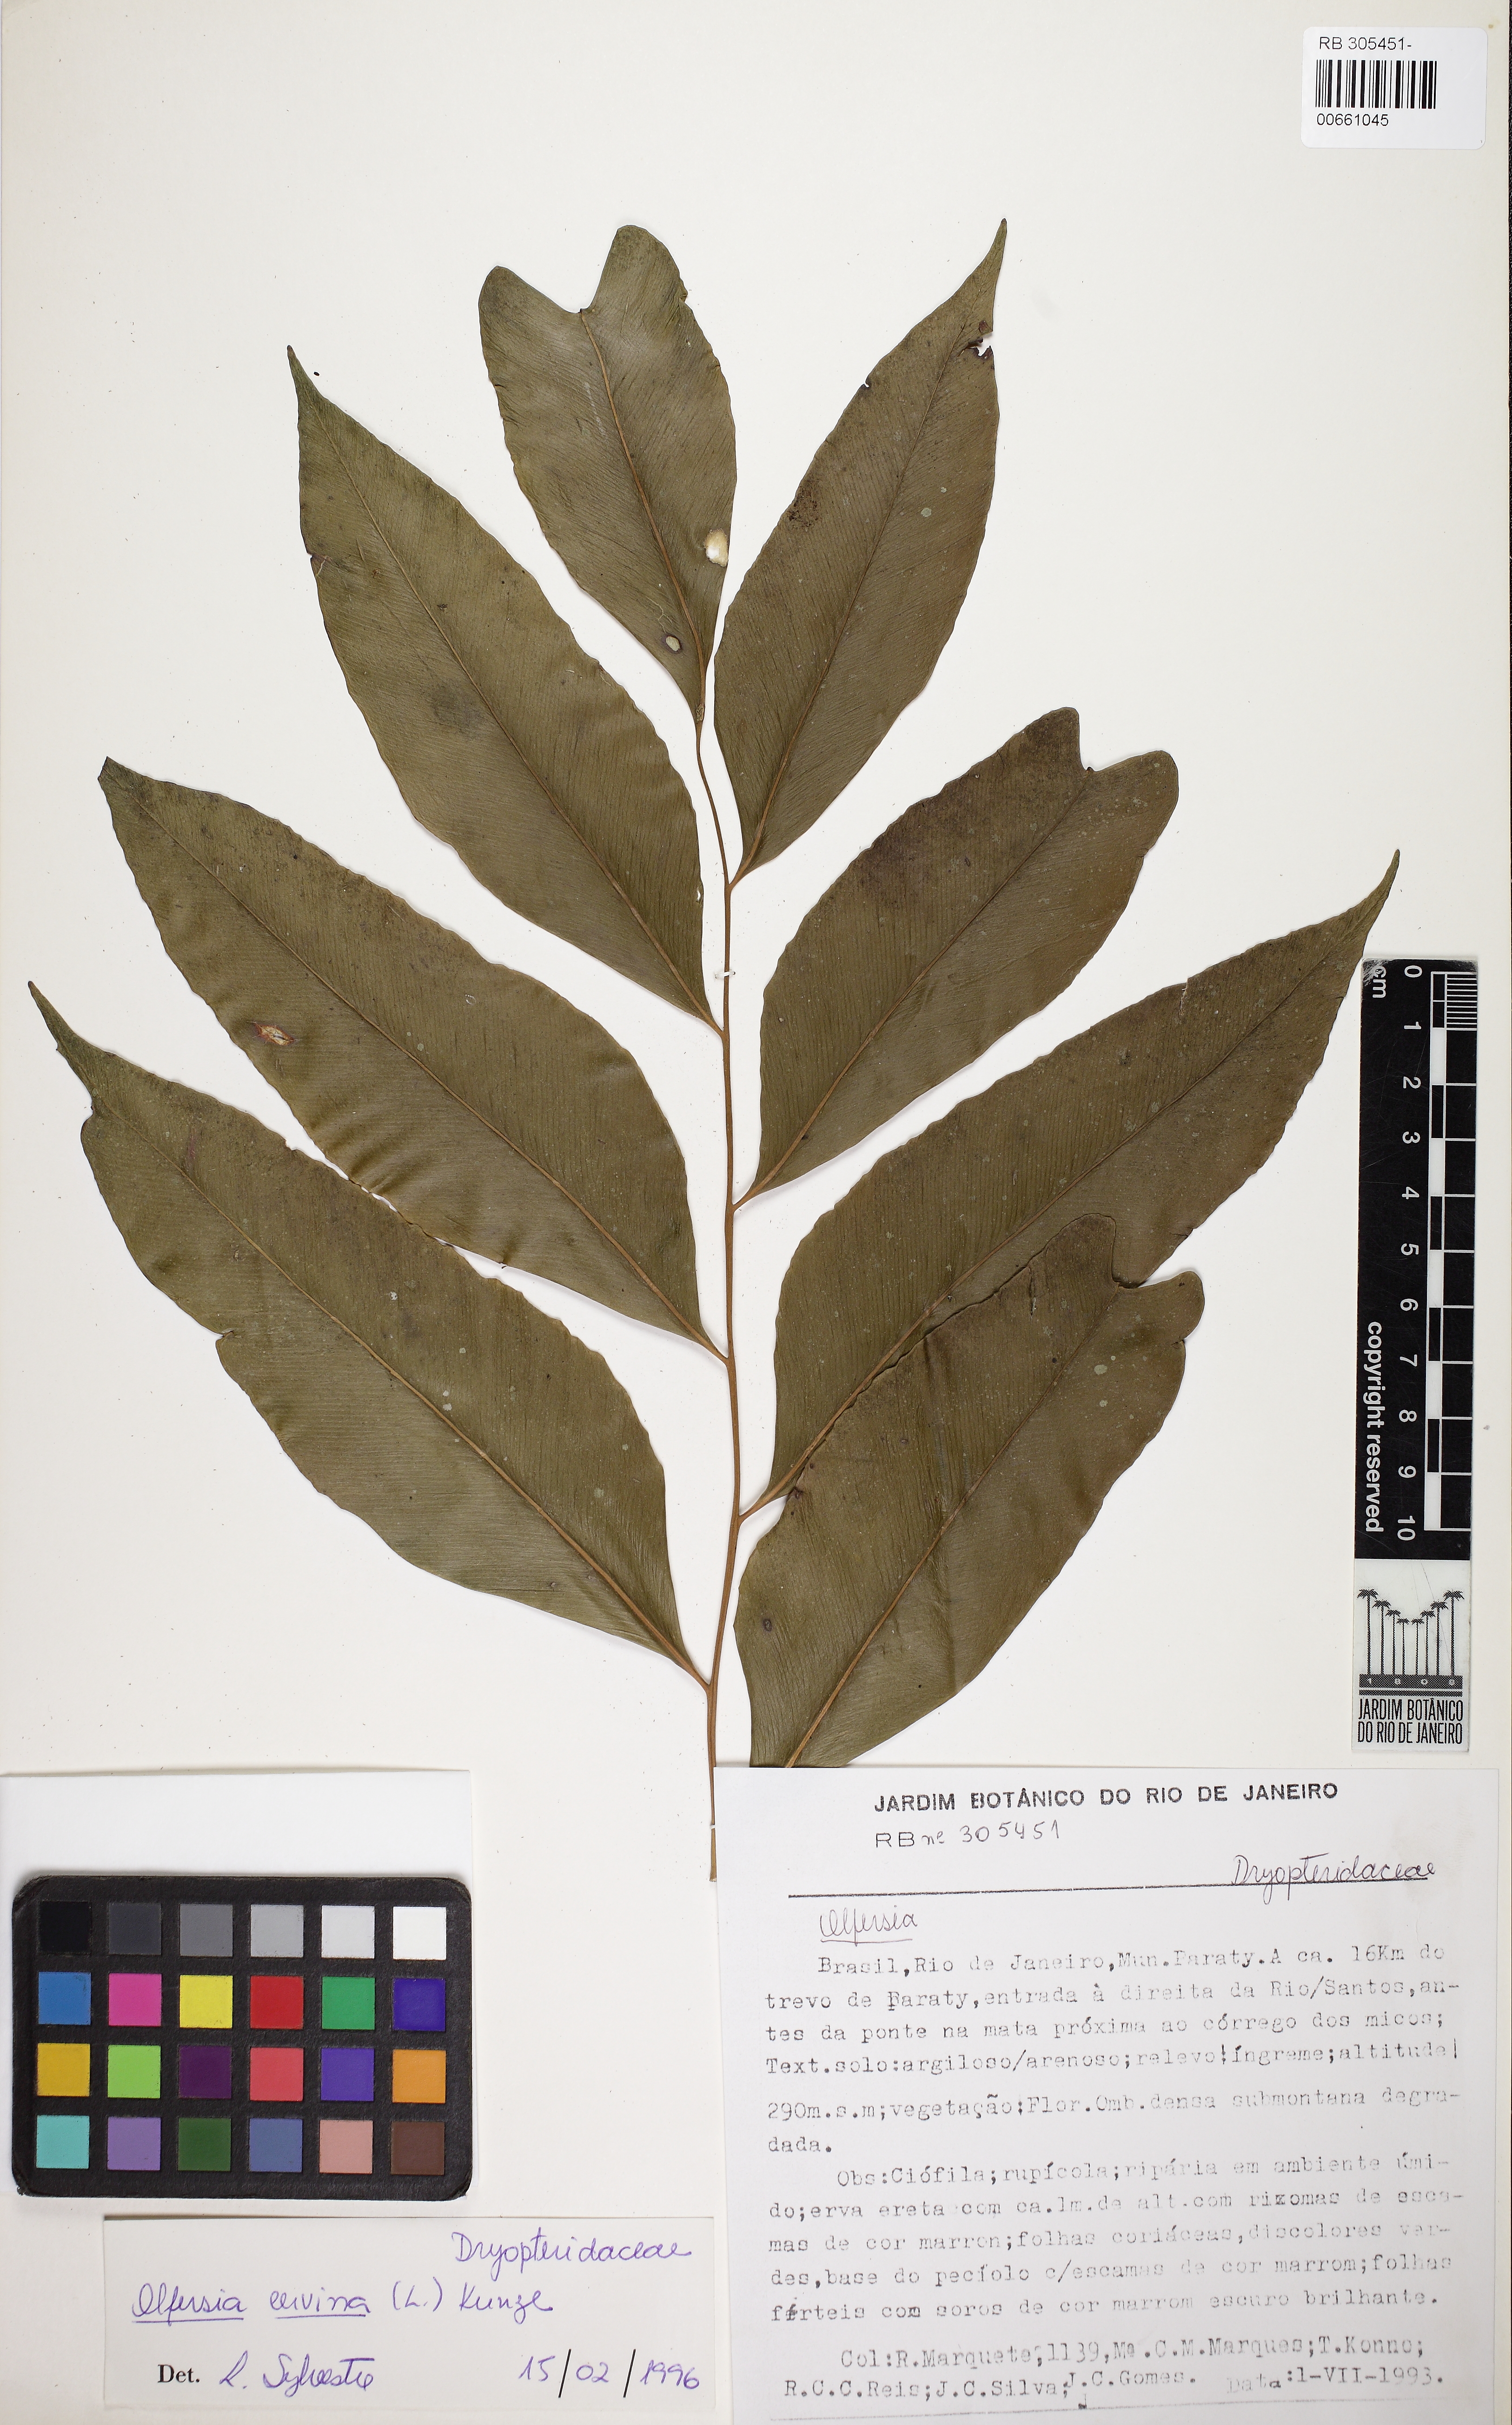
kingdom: Plantae
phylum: Tracheophyta
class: Polypodiopsida
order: Polypodiales
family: Dryopteridaceae
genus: Olfersia
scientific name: Olfersia cervina
